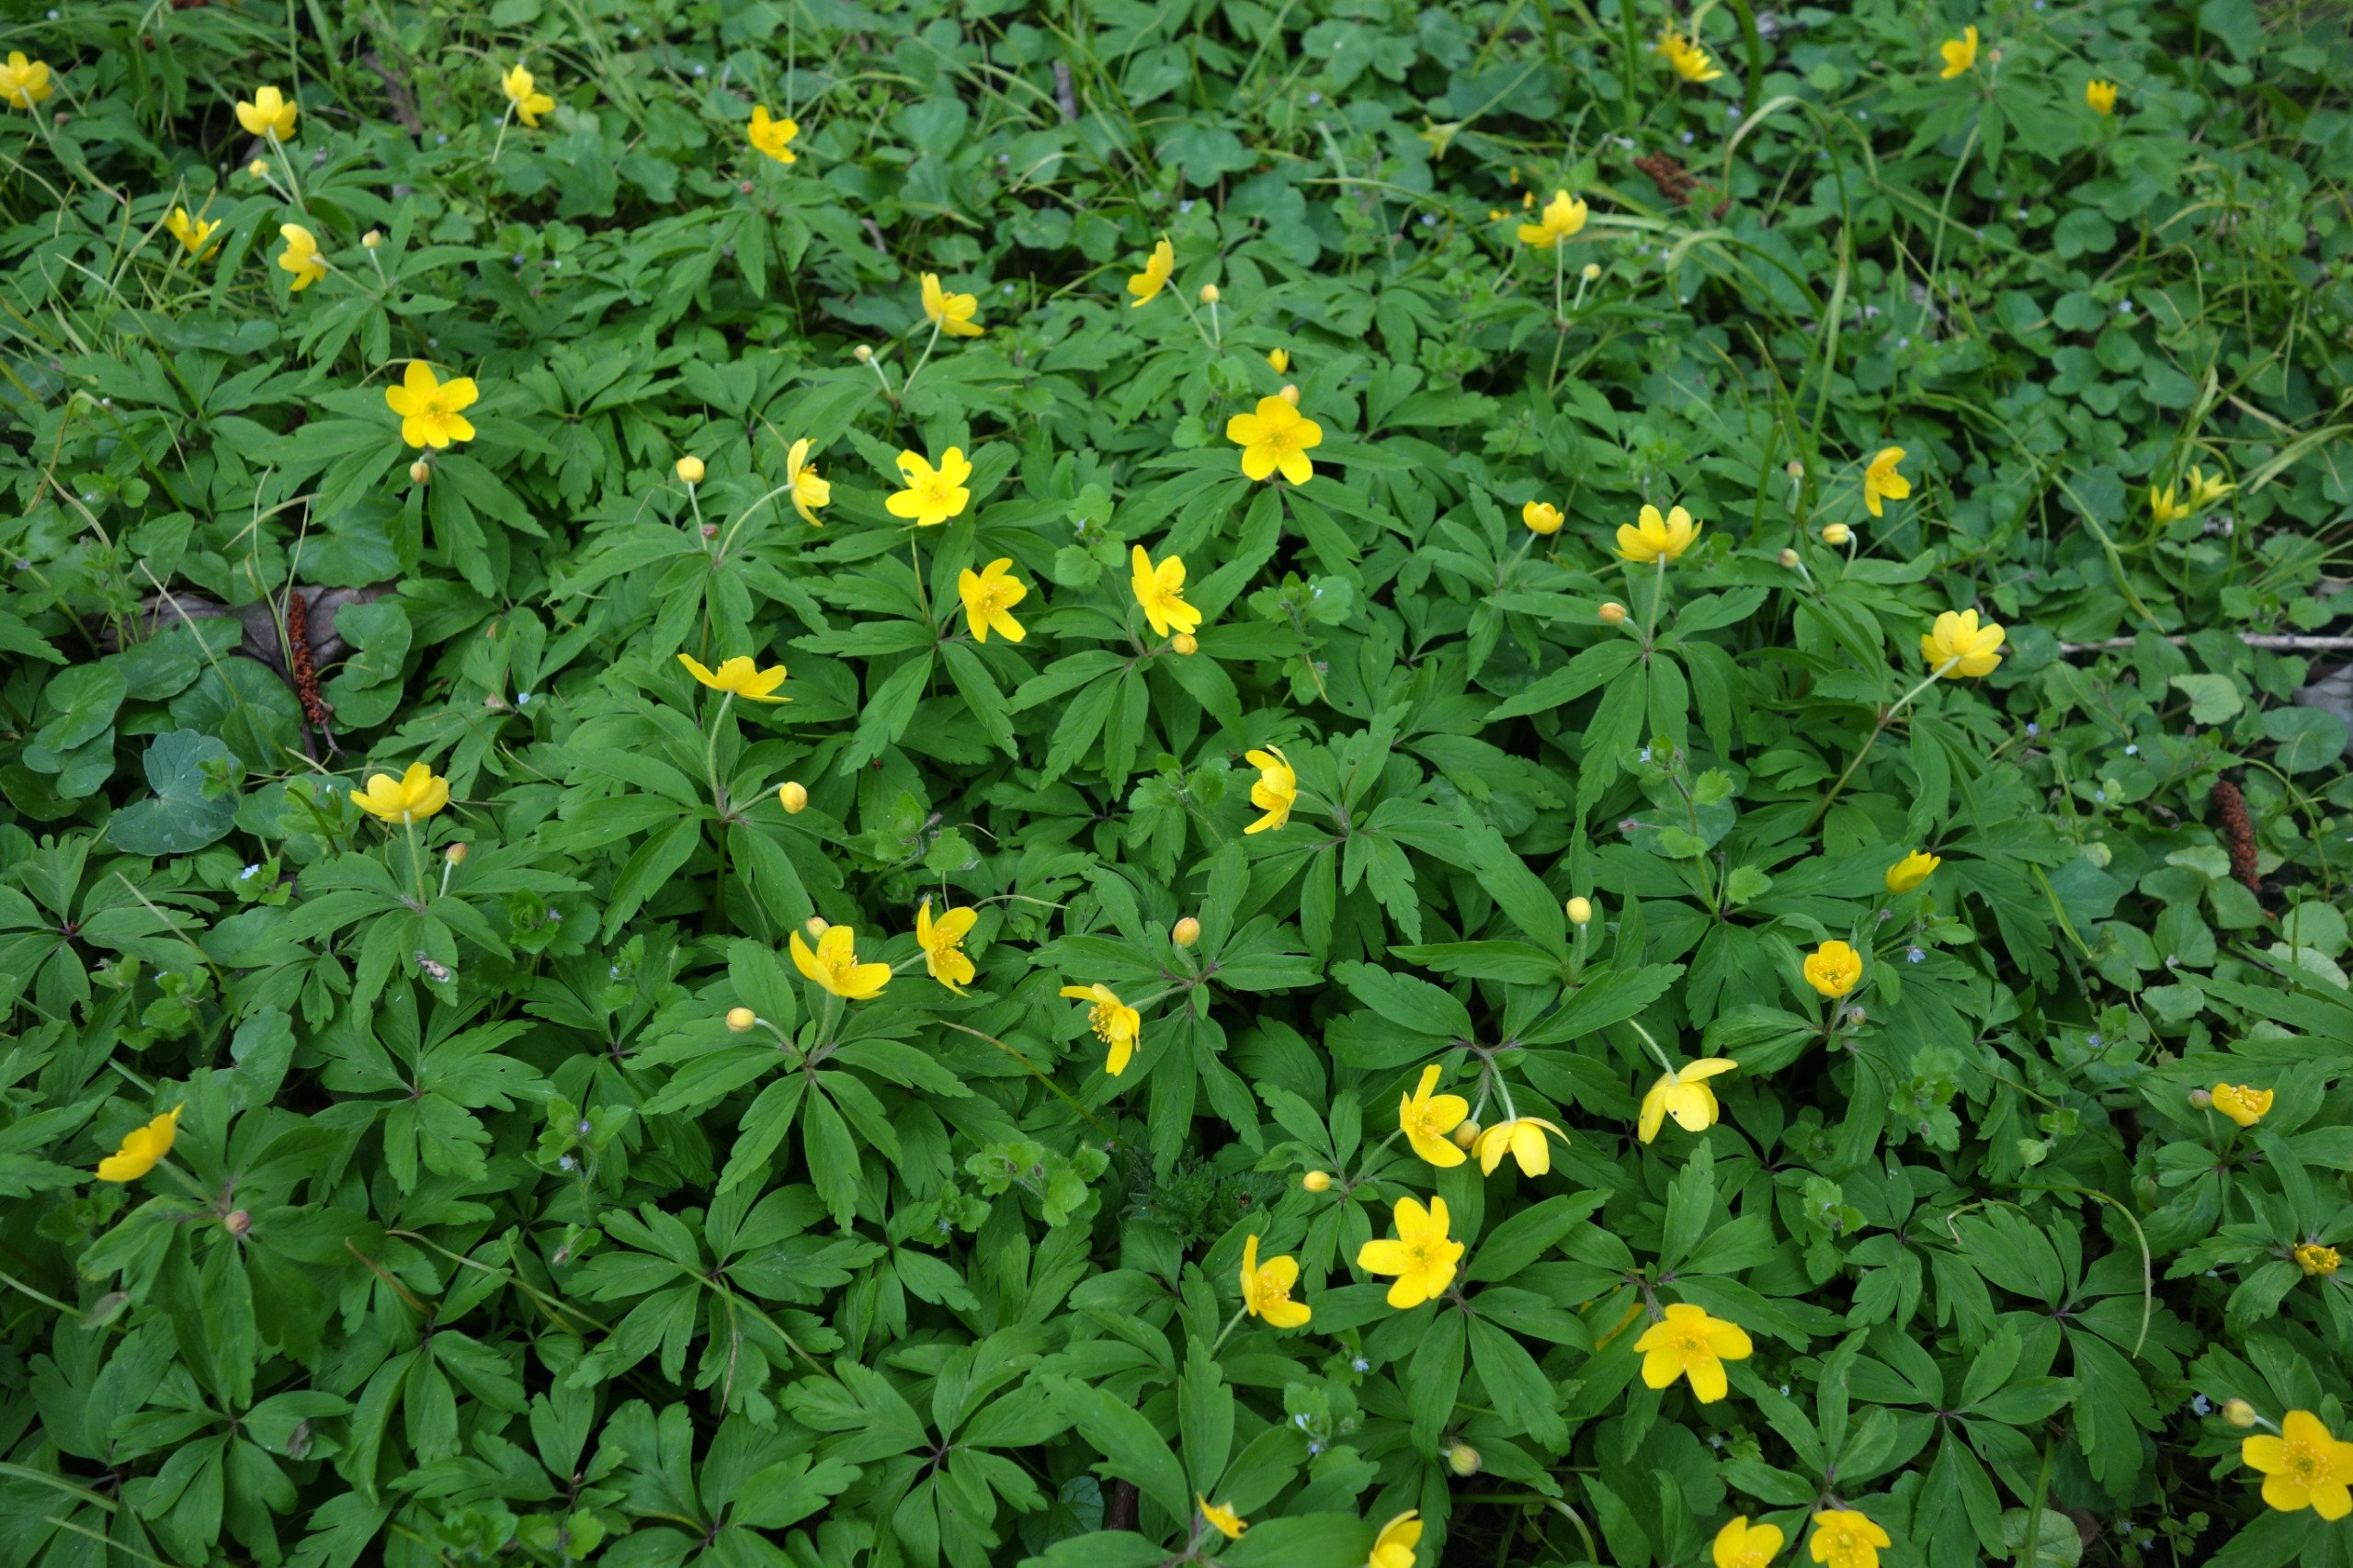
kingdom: Plantae
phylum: Tracheophyta
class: Magnoliopsida
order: Ranunculales
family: Ranunculaceae
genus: Anemone
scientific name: Anemone ranunculoides
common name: Gul anemone
